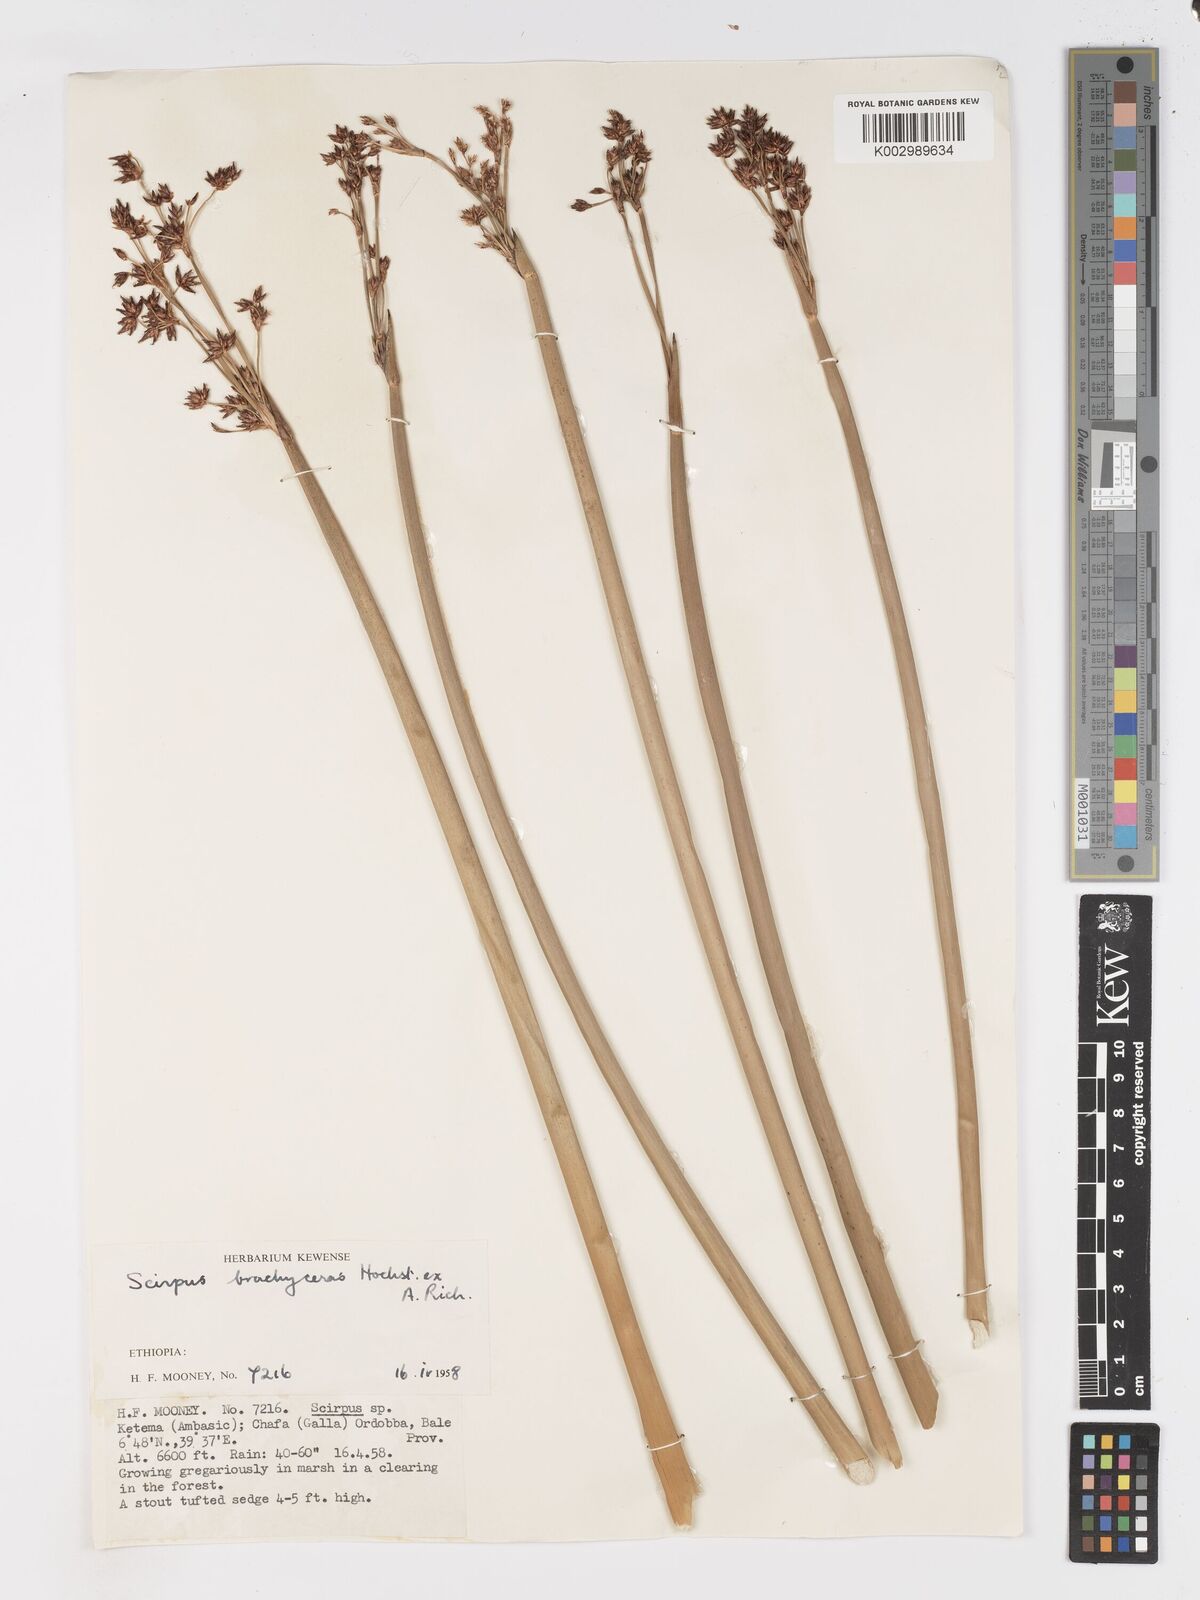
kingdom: Plantae
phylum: Tracheophyta
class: Liliopsida
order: Poales
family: Cyperaceae
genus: Schoenoplectiella
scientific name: Schoenoplectiella brachyceras
